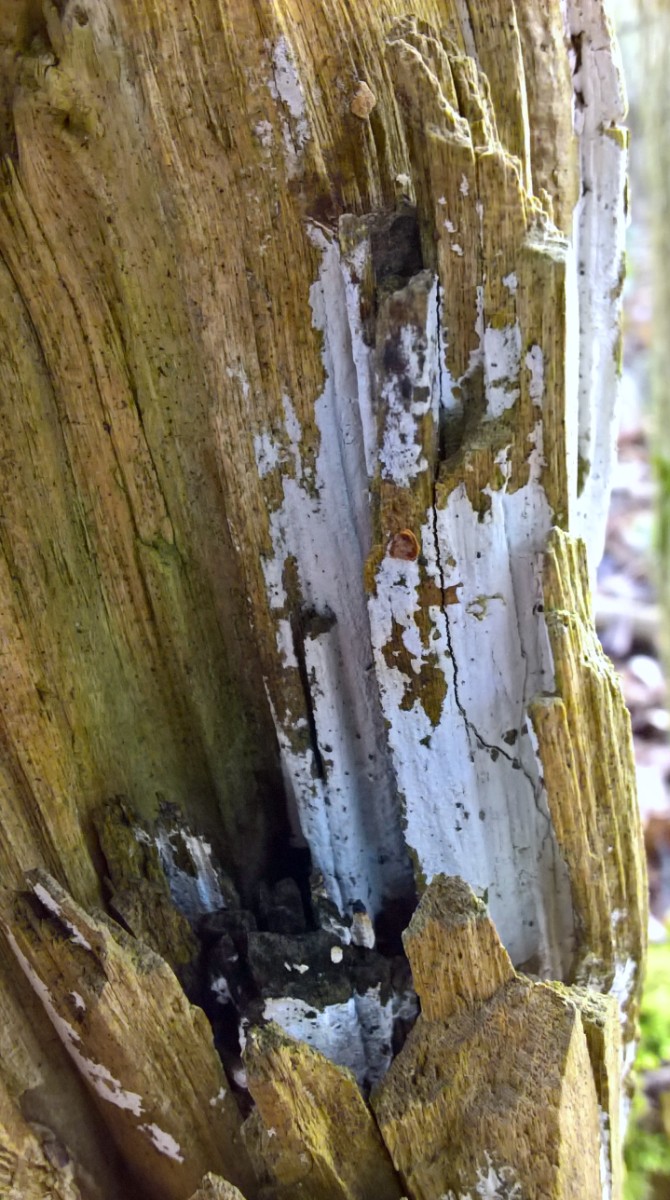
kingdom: Fungi
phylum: Basidiomycota
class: Agaricomycetes
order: Corticiales
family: Corticiaceae
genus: Lyomyces
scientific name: Lyomyces sambuci
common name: almindelig hyldehinde
